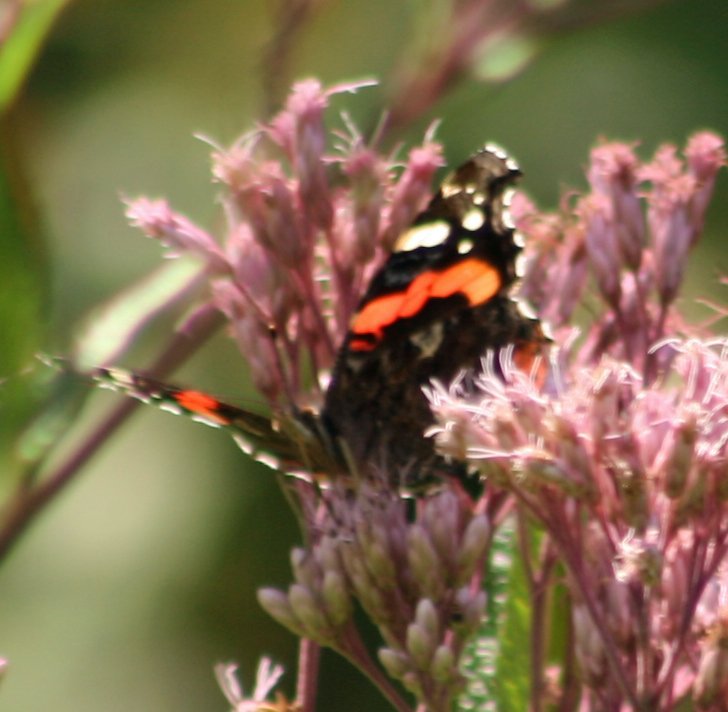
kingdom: Animalia
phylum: Arthropoda
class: Insecta
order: Lepidoptera
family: Nymphalidae
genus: Vanessa
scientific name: Vanessa atalanta
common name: Red Admiral
